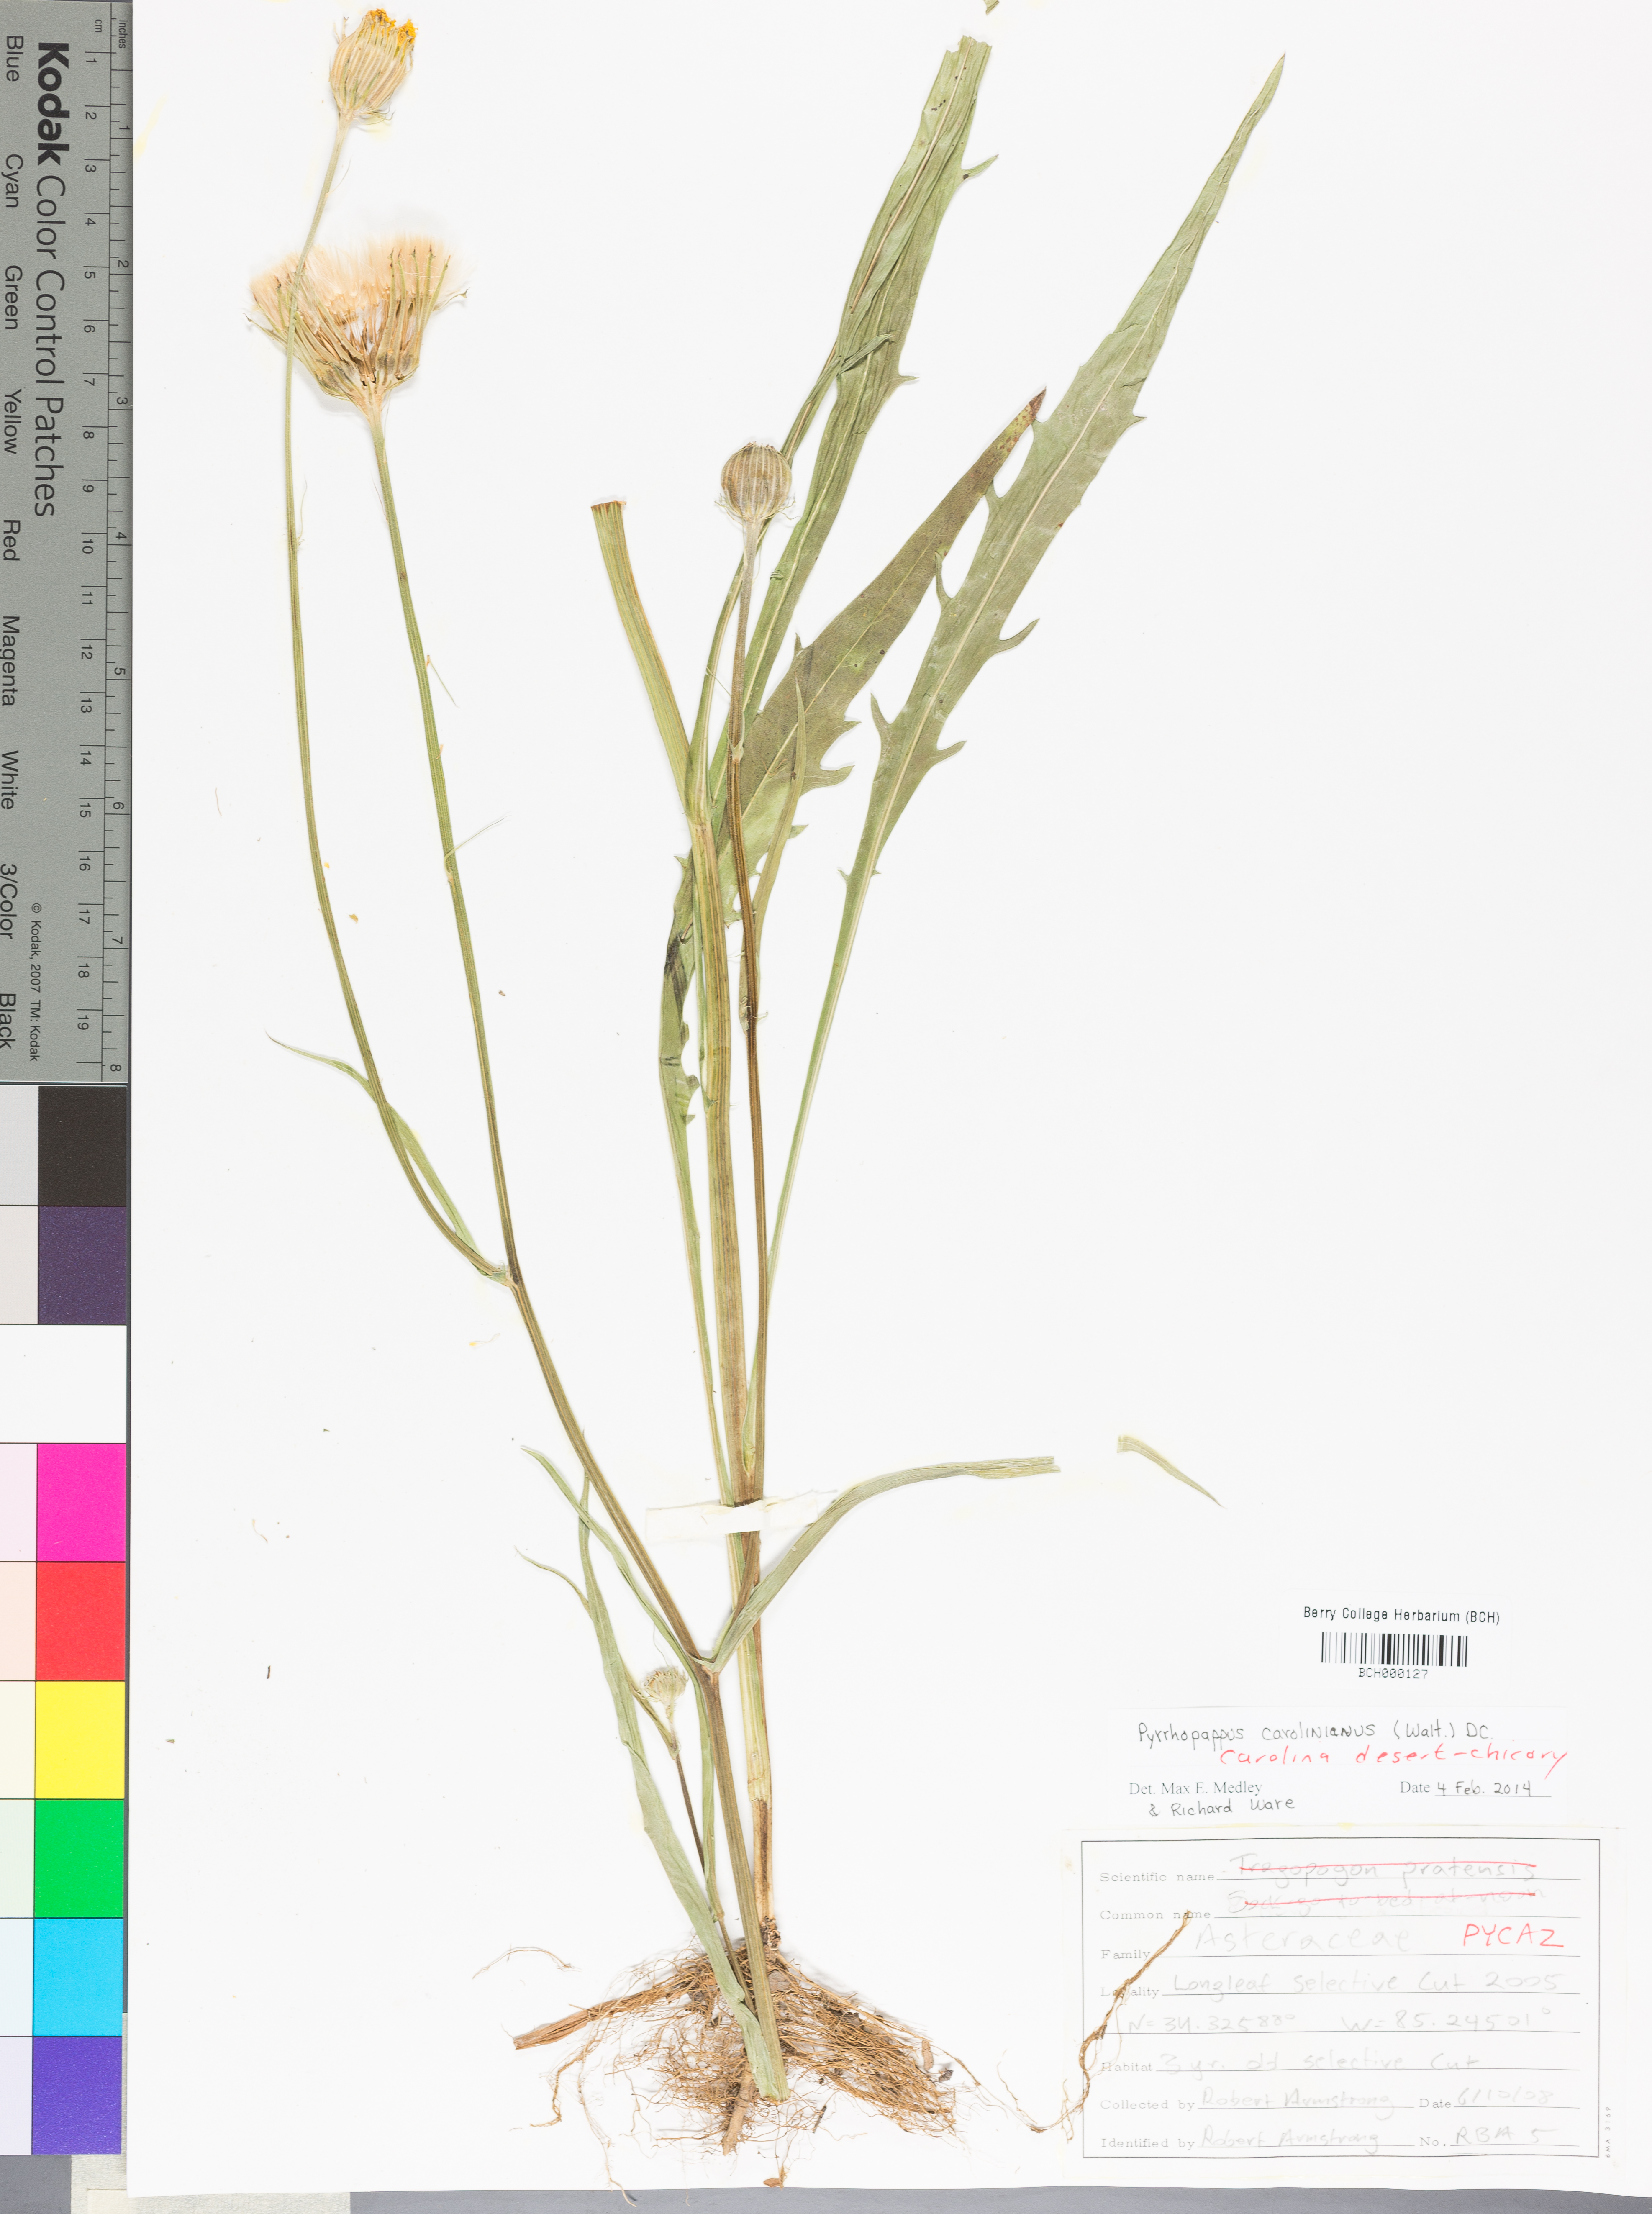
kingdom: Plantae
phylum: Tracheophyta
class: Magnoliopsida
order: Asterales
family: Asteraceae
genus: Pyrrhopappus
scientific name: Pyrrhopappus carolinianus
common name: Carolina desert-chicory
